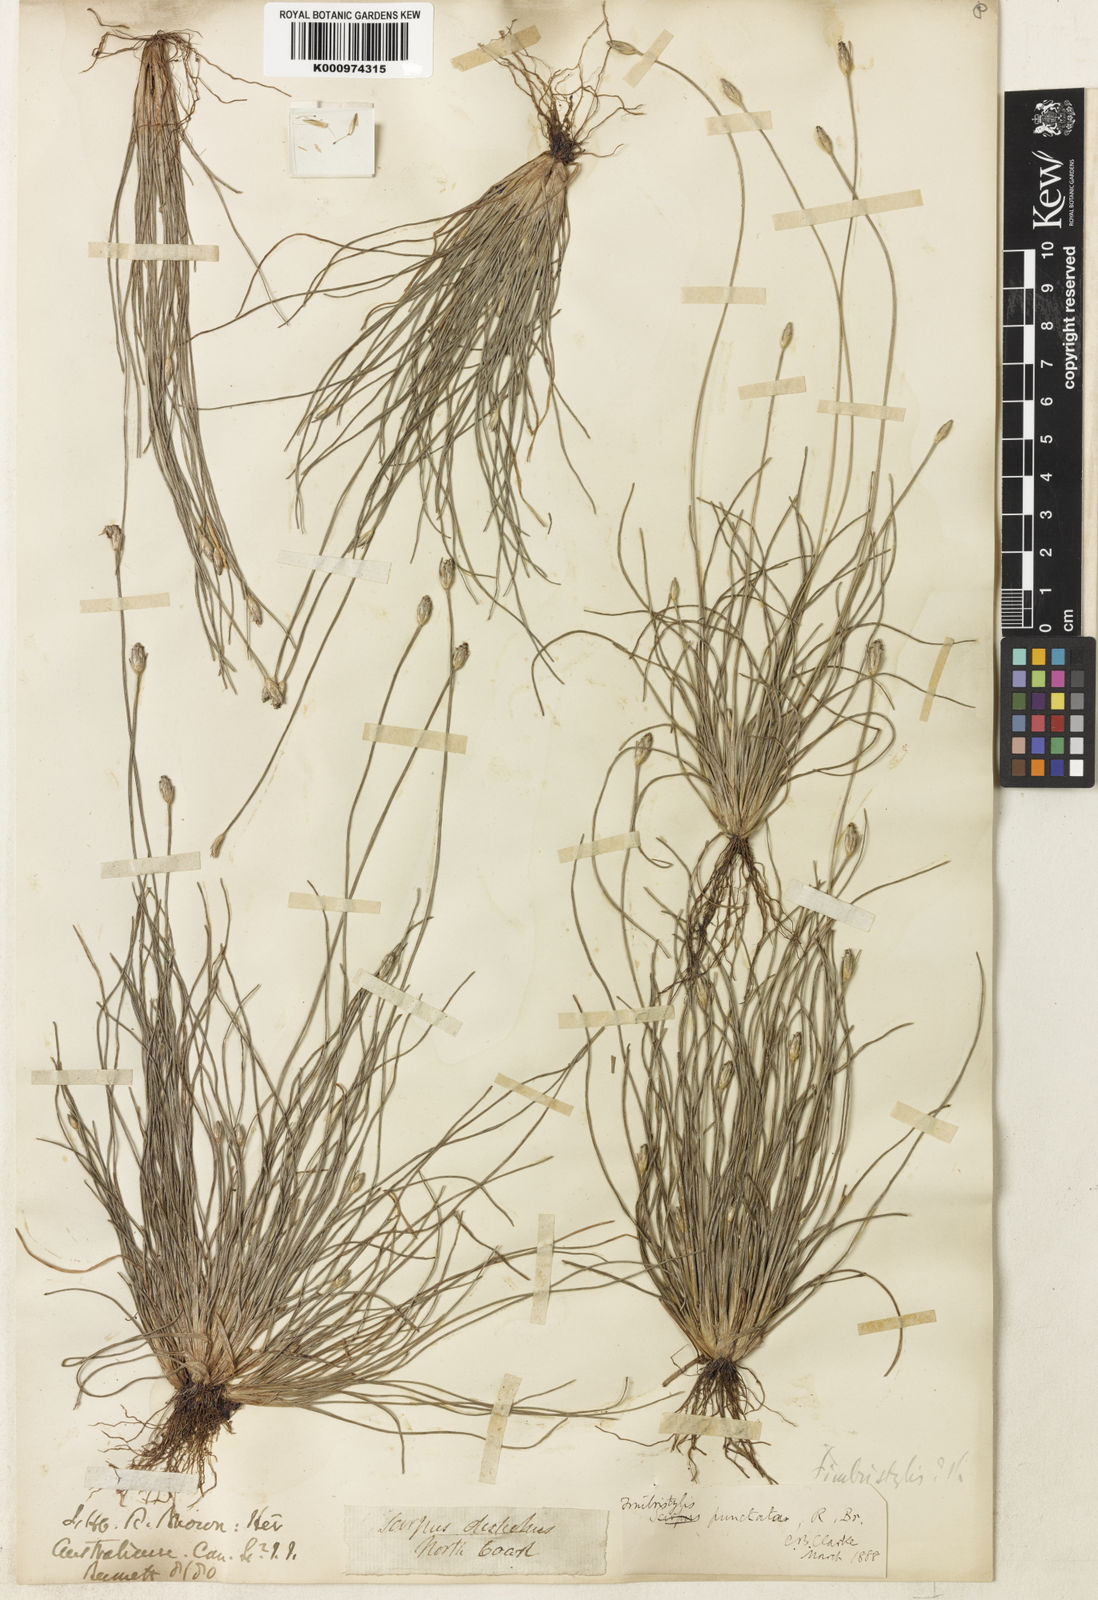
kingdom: Plantae
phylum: Tracheophyta
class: Liliopsida
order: Poales
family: Cyperaceae
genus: Fimbristylis
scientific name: Fimbristylis punctata
